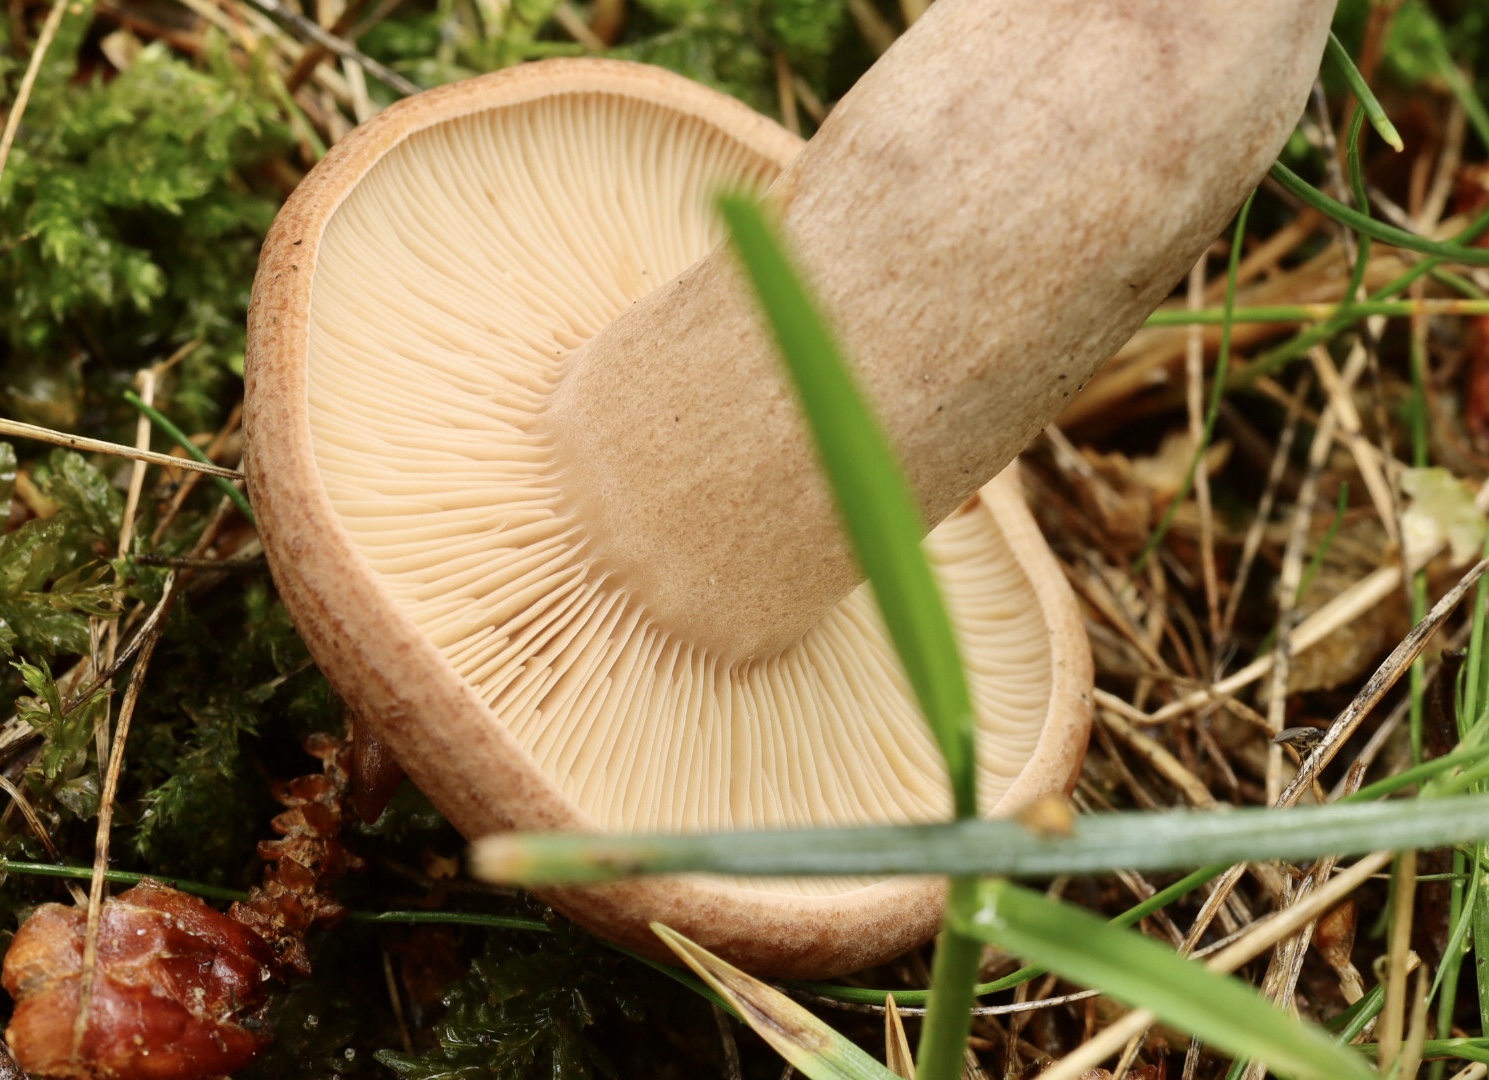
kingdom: Fungi
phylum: Basidiomycota
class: Agaricomycetes
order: Russulales
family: Russulaceae
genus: Lactarius
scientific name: Lactarius quietus
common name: ege-mælkehat
